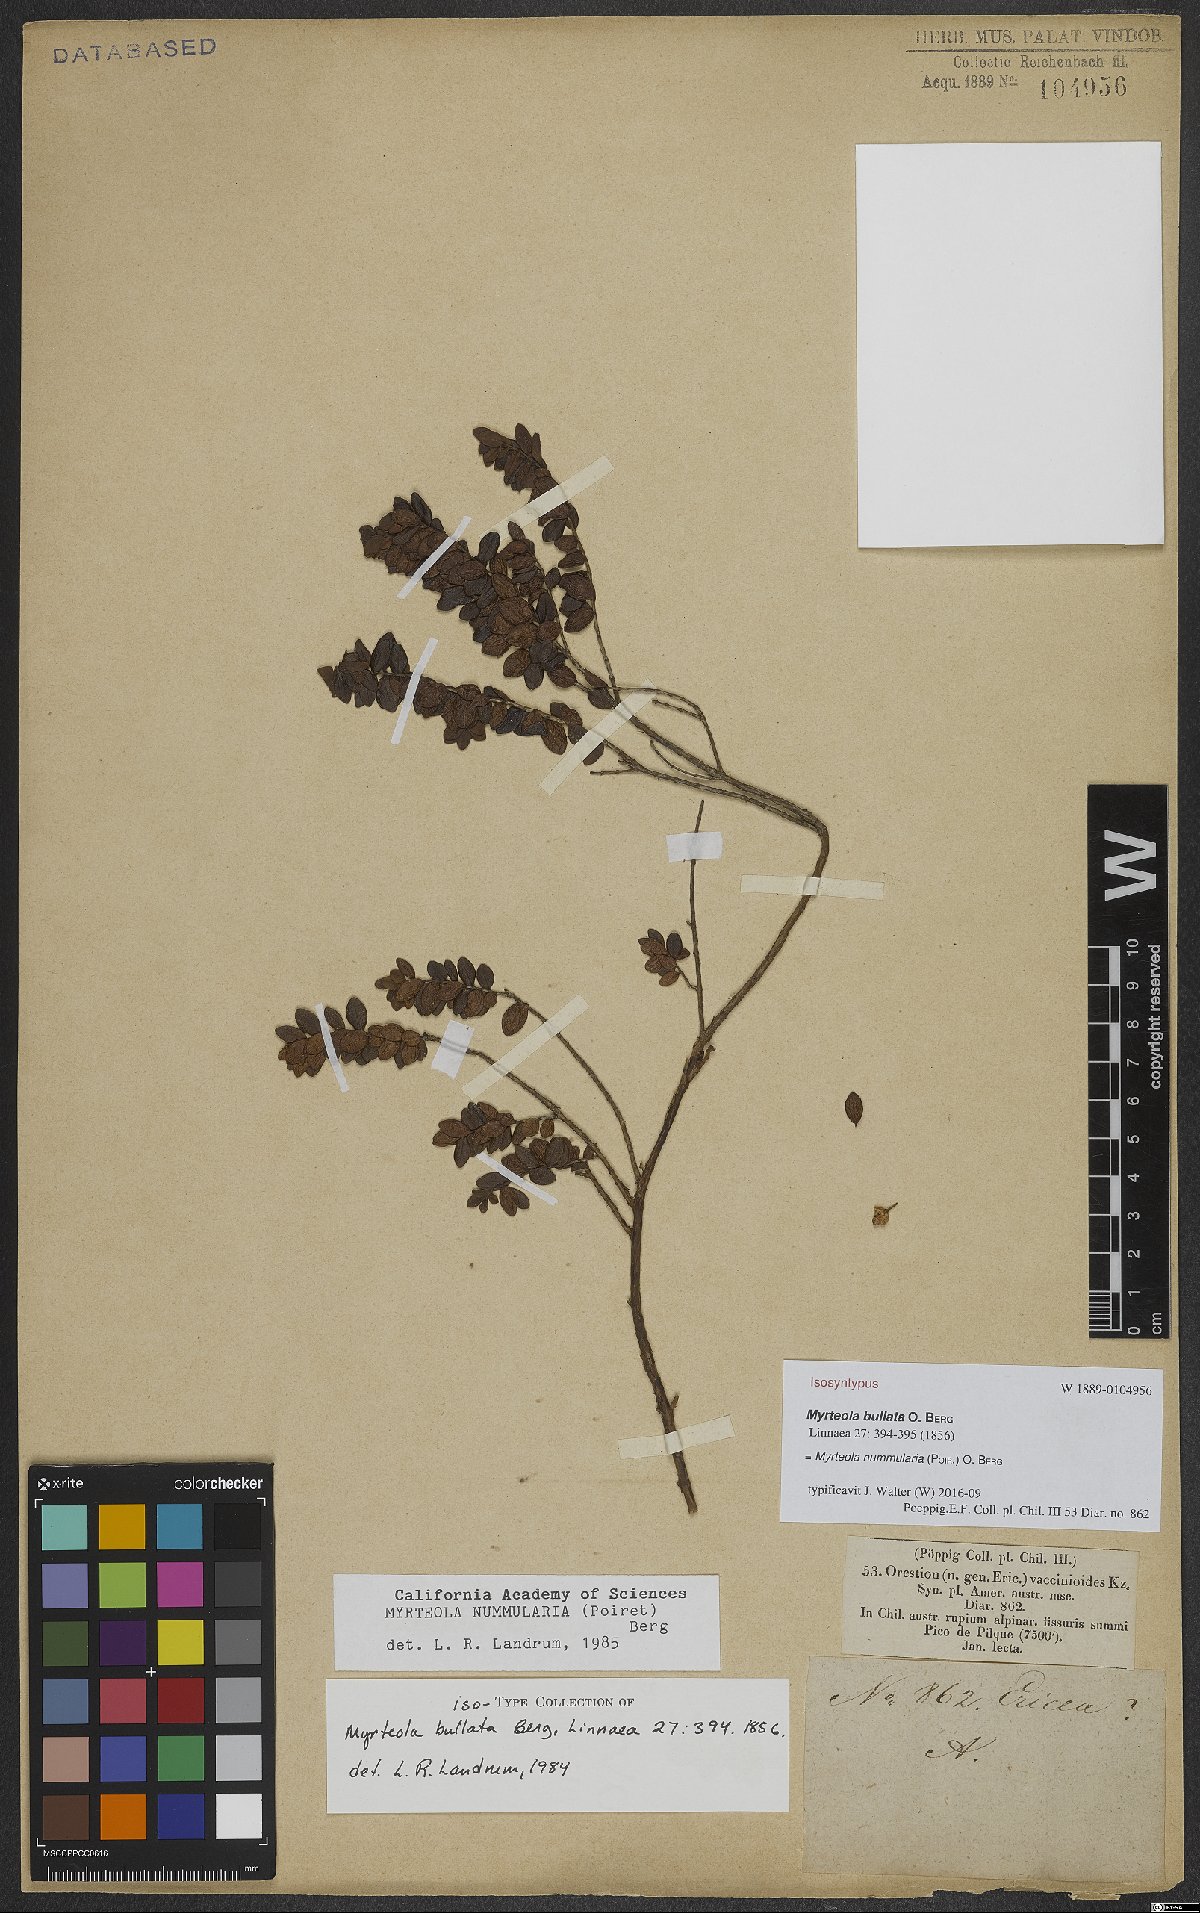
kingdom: Plantae
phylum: Tracheophyta
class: Magnoliopsida
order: Myrtales
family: Myrtaceae
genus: Myrteola
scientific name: Myrteola nummularia
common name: Cranberry-myrtle
